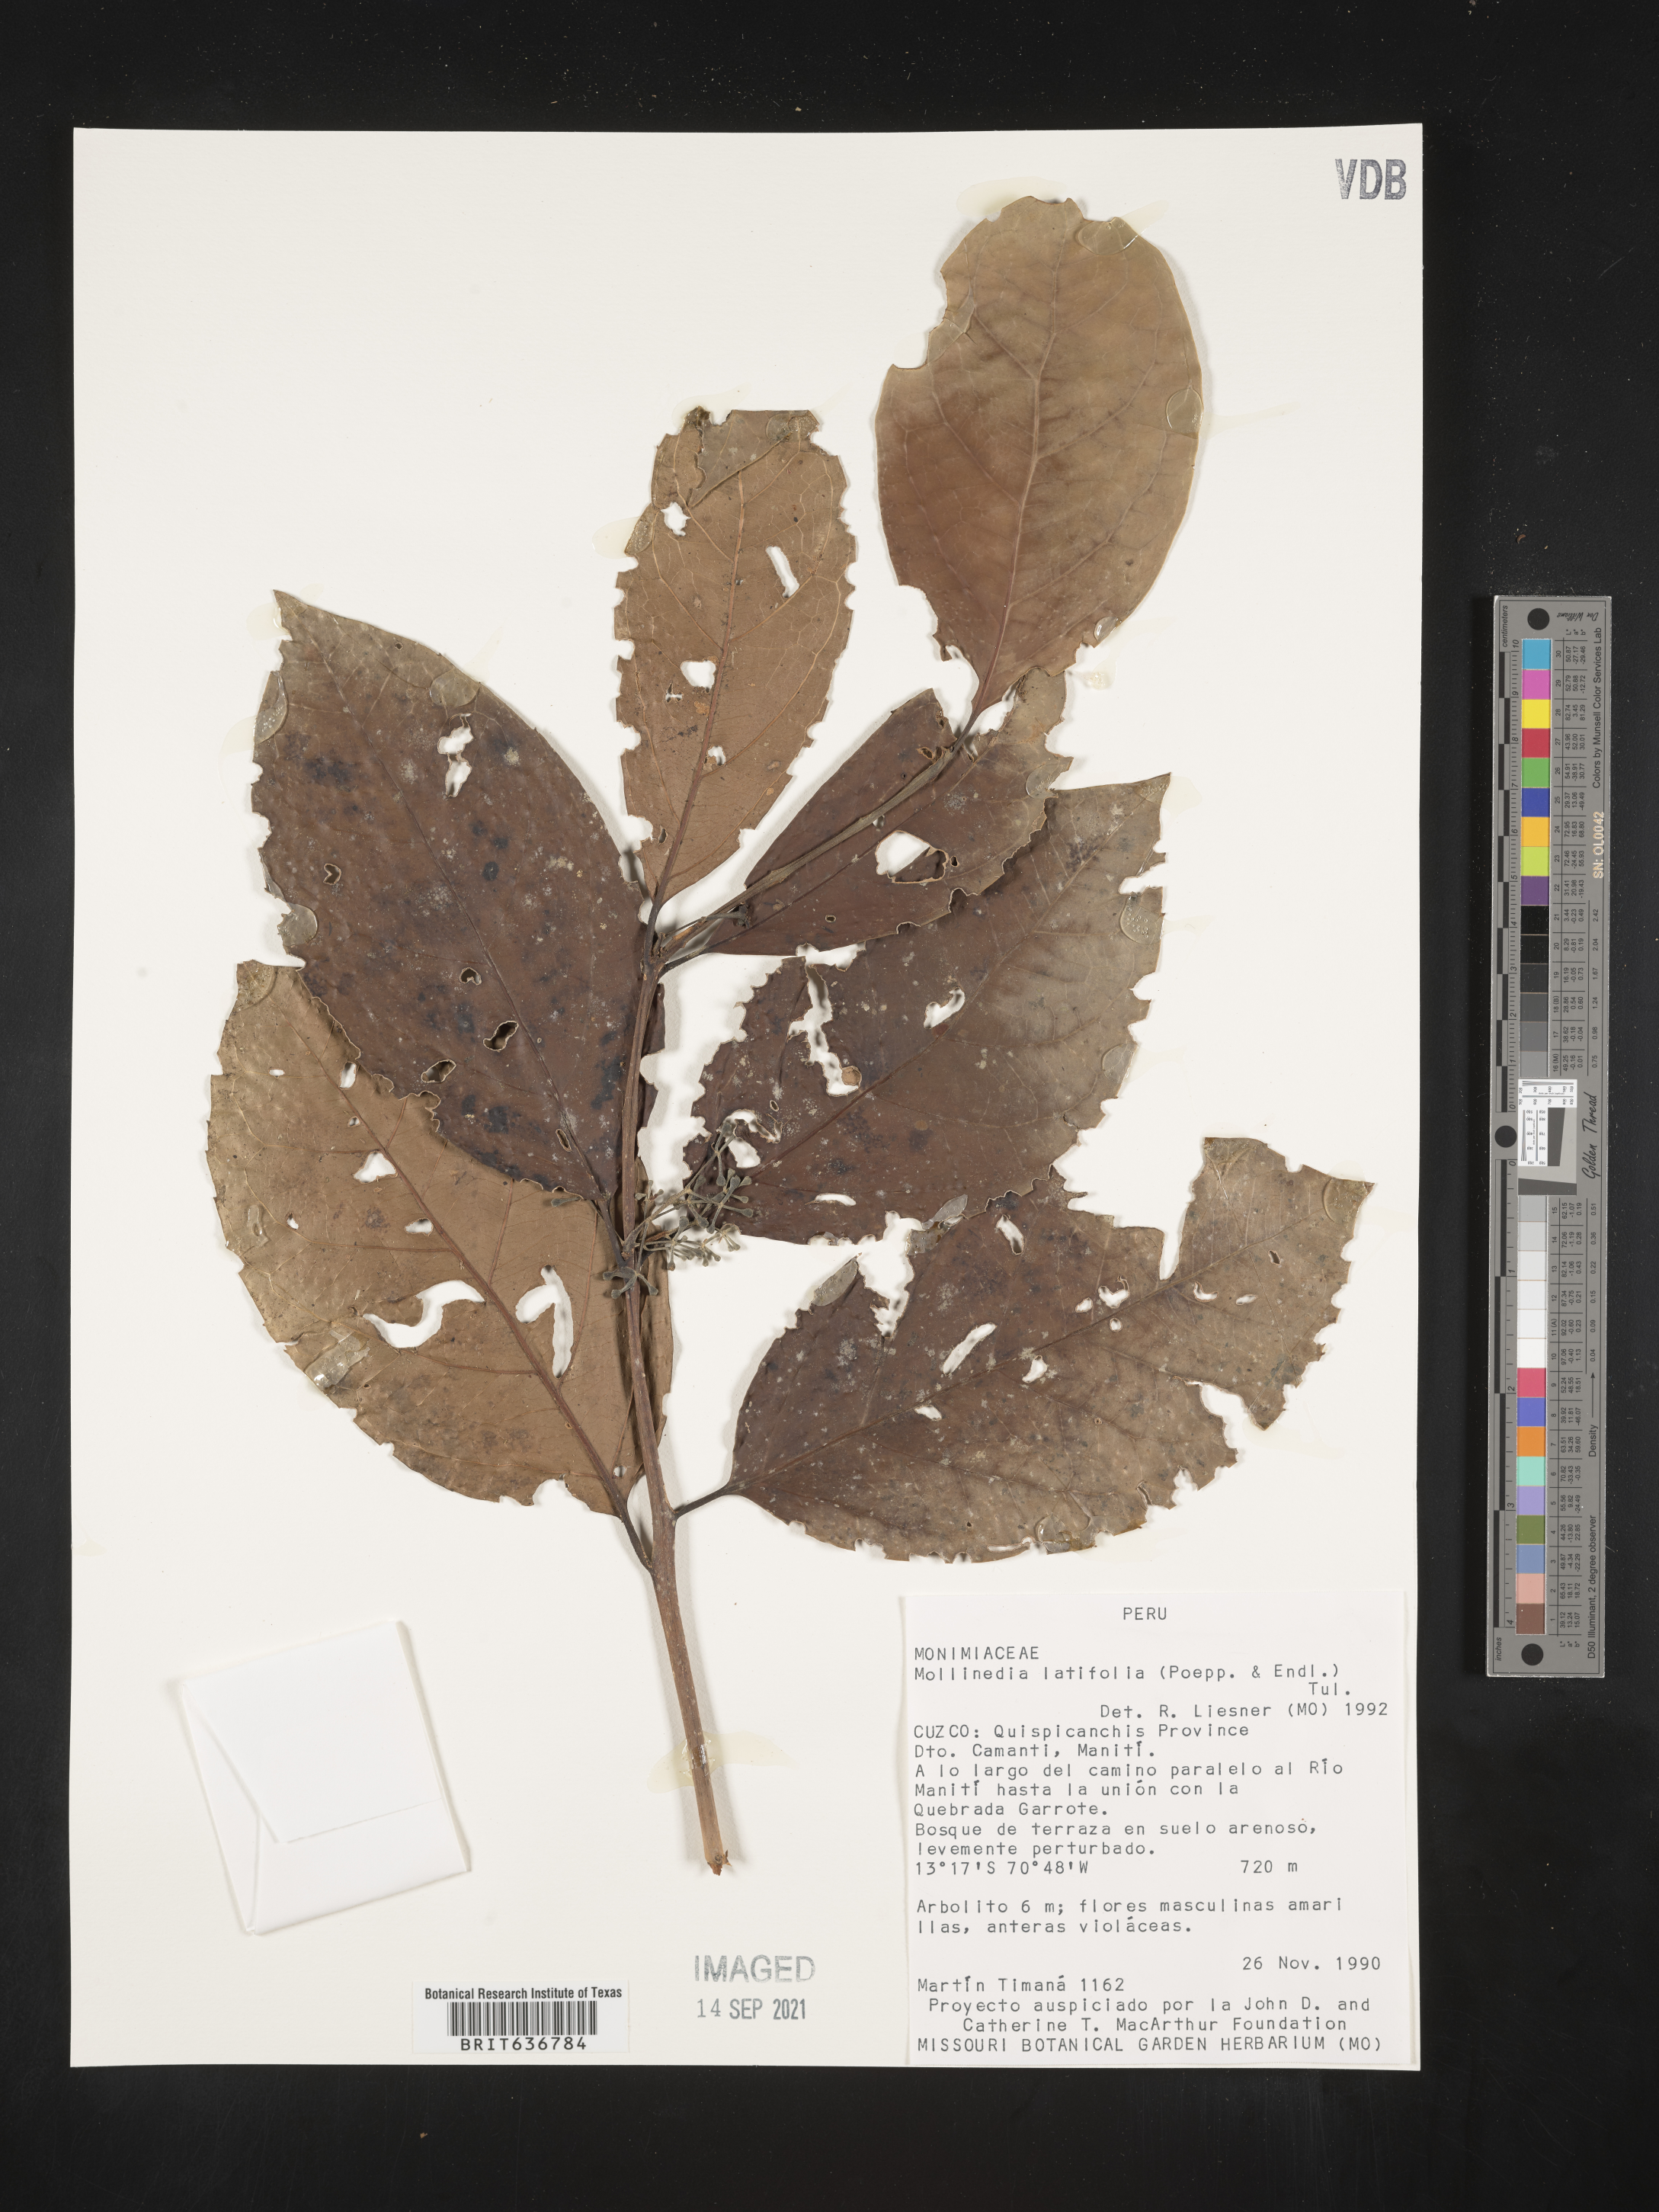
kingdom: Plantae
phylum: Tracheophyta
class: Magnoliopsida
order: Laurales
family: Monimiaceae
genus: Mollinedia
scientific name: Mollinedia
